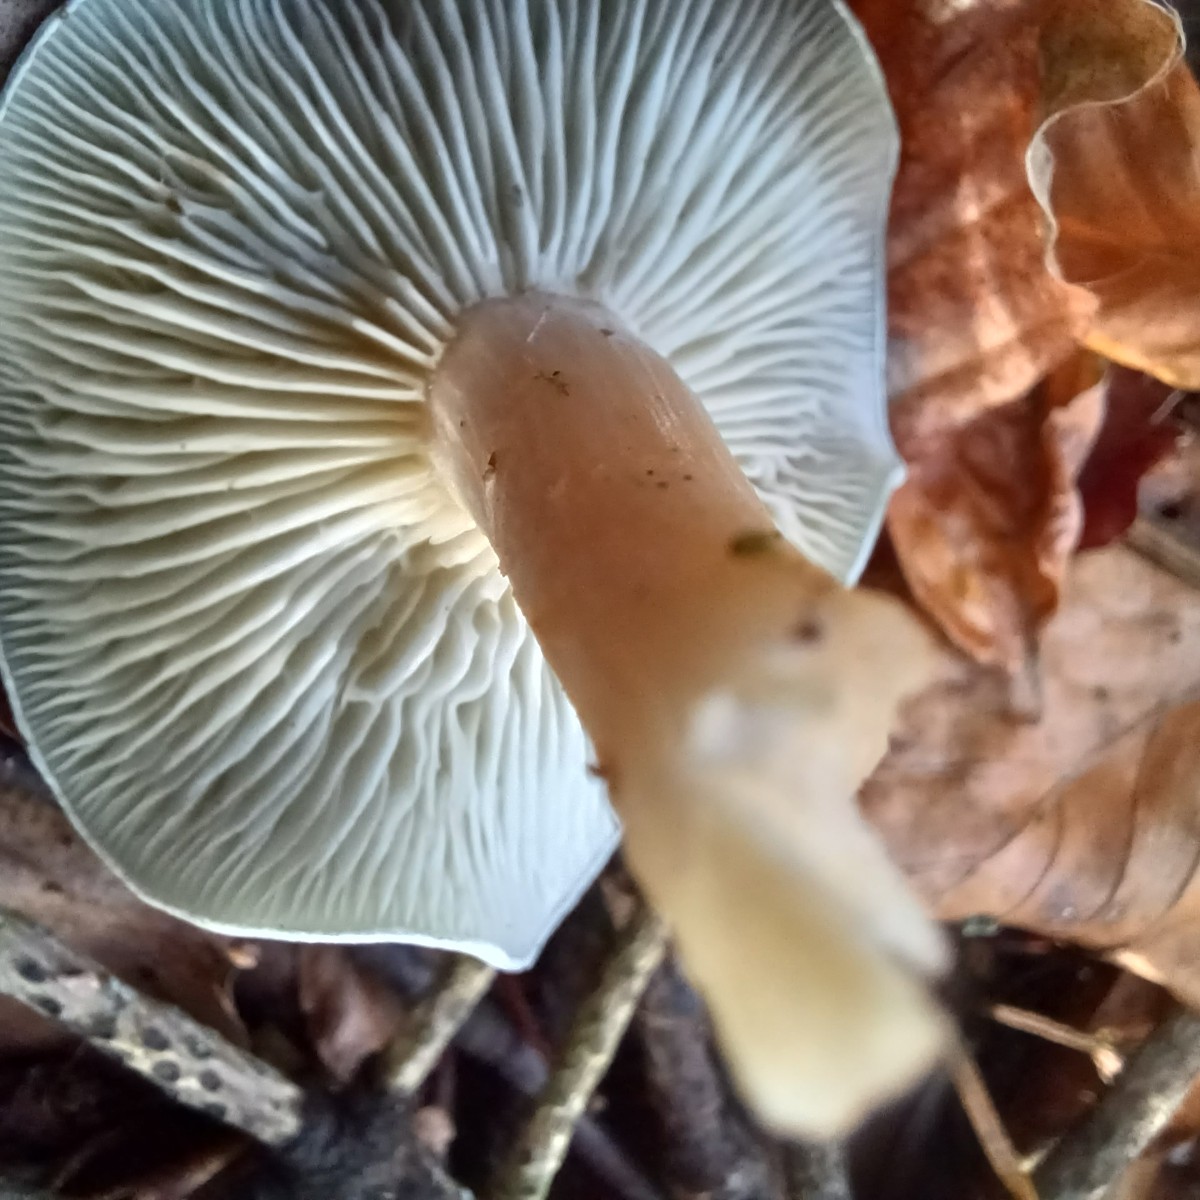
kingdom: Fungi
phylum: Basidiomycota
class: Agaricomycetes
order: Agaricales
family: Tricholomataceae
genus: Clitocybe
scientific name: Clitocybe odora
